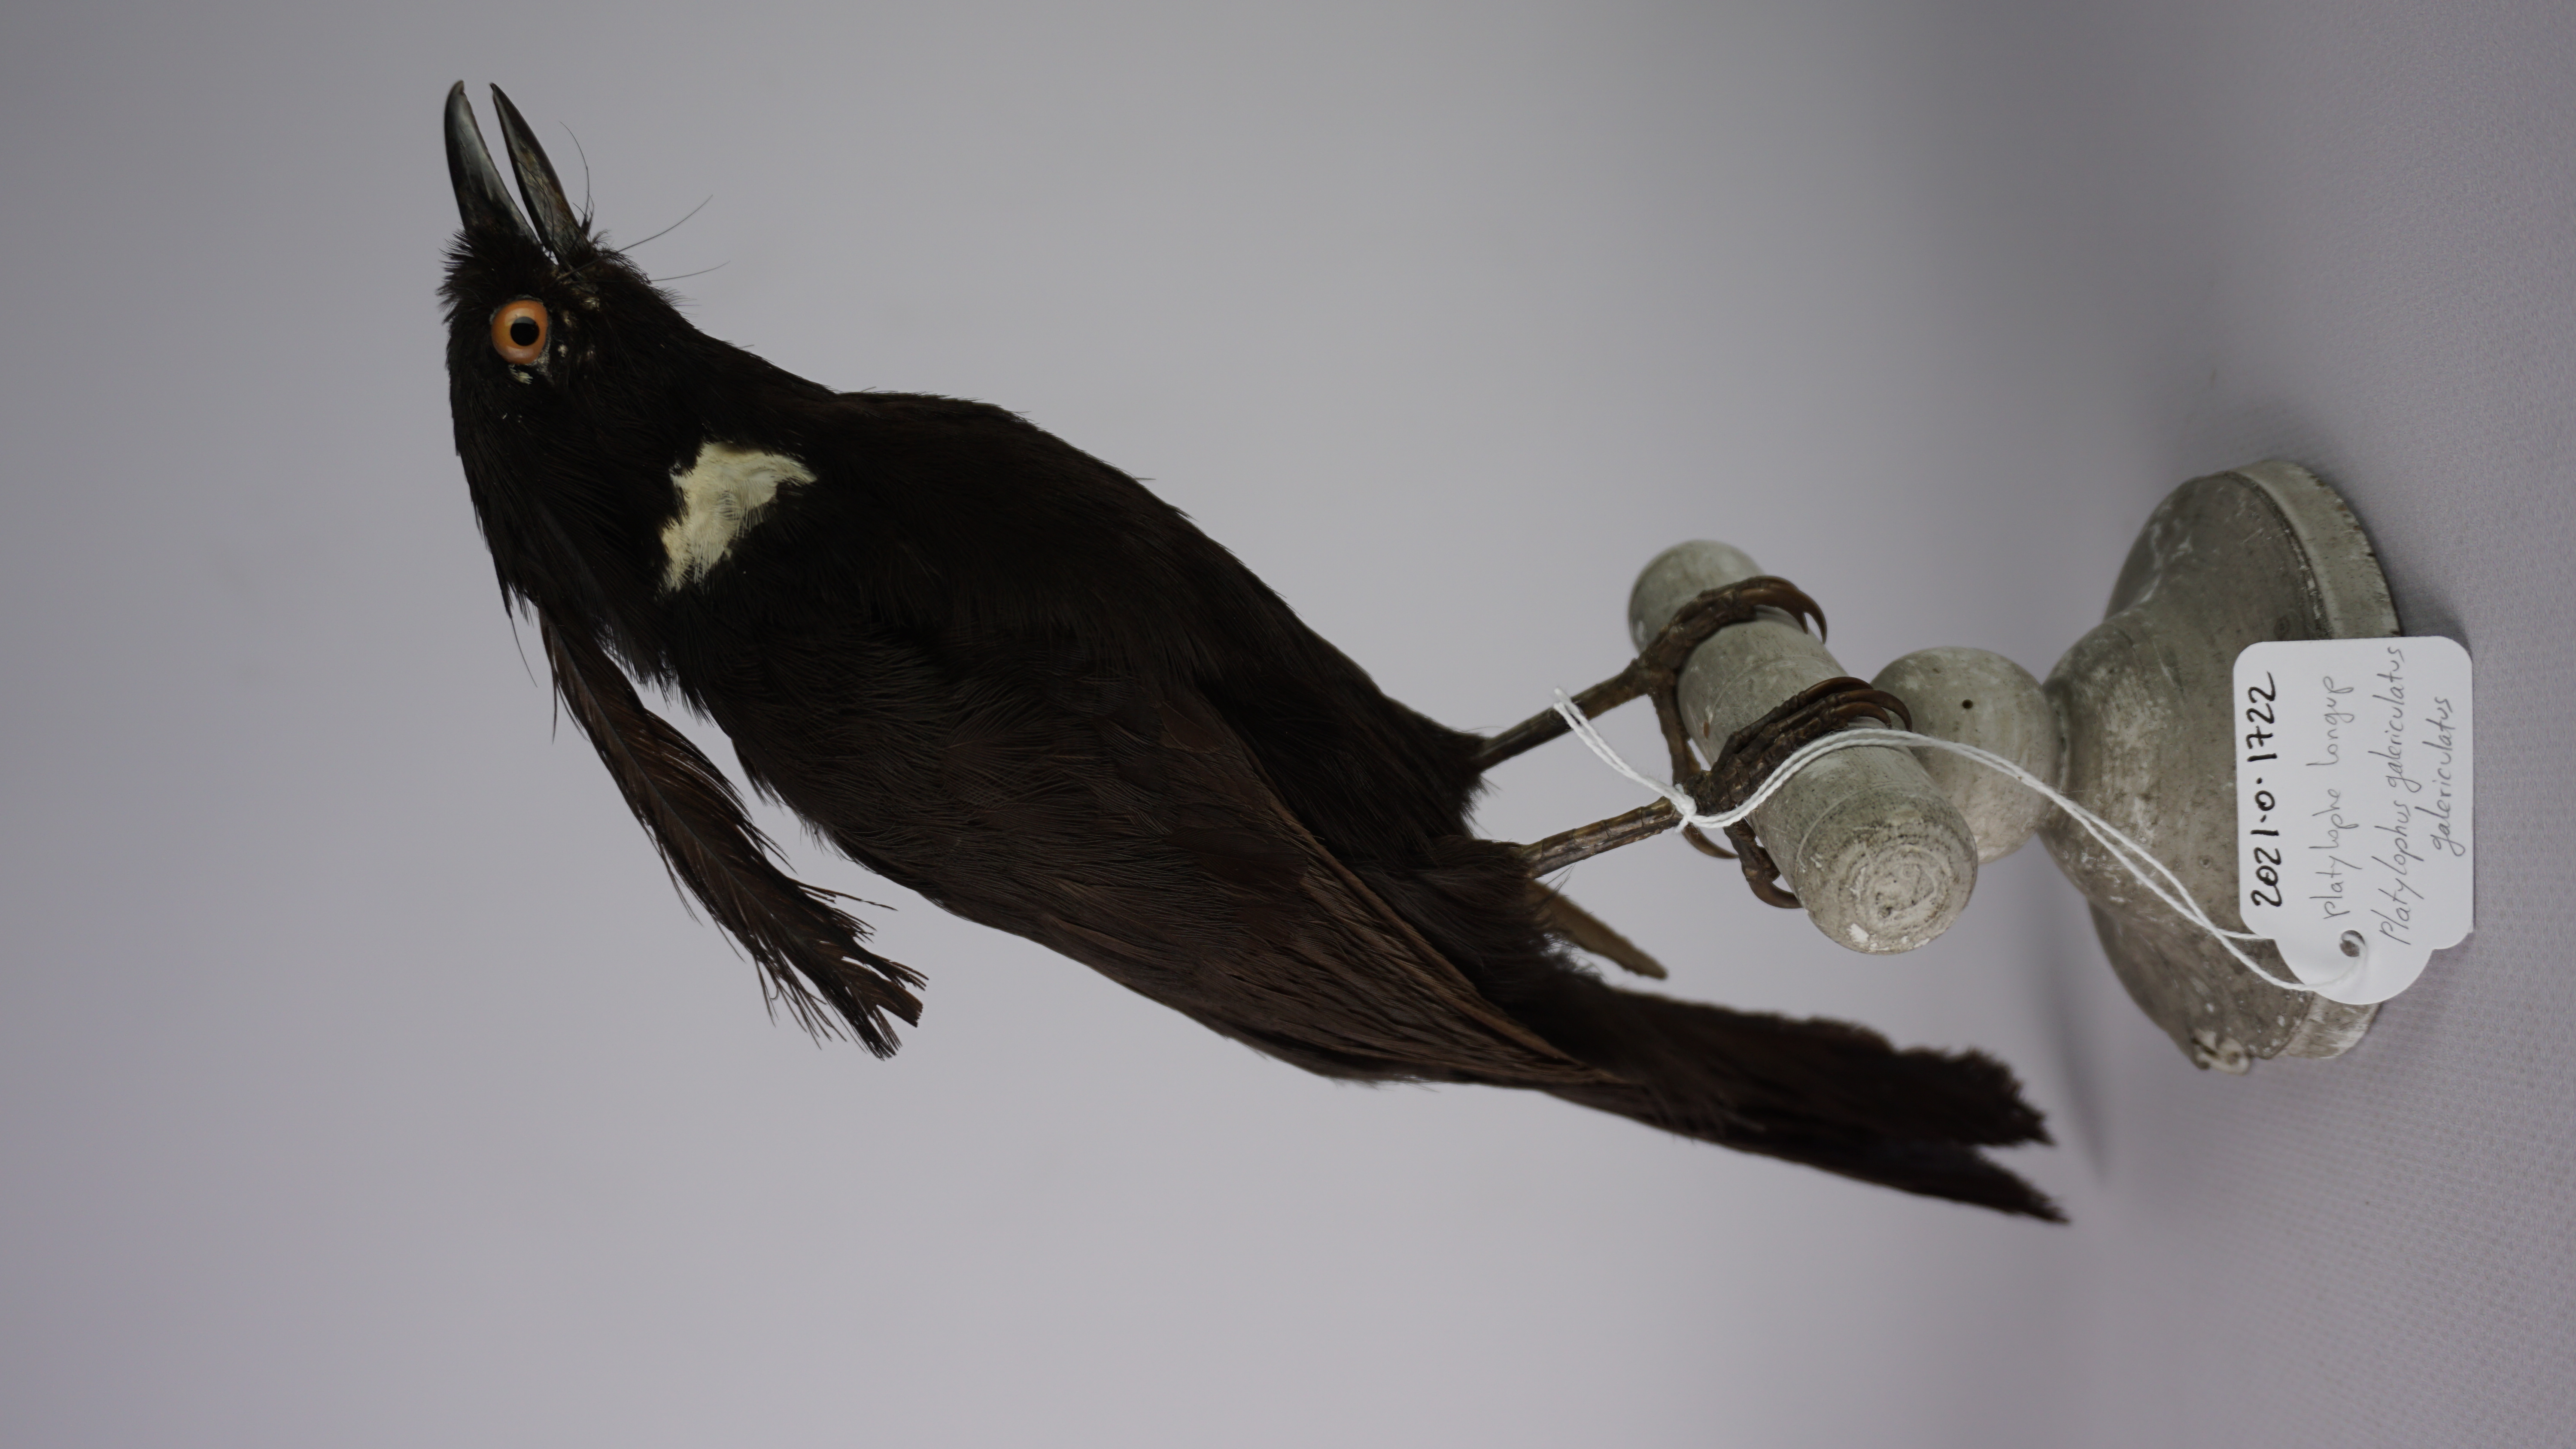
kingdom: Animalia
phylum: Chordata
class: Aves
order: Passeriformes
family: Corvidae
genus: Platylophus
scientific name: Platylophus galericulatus
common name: Crested jay
